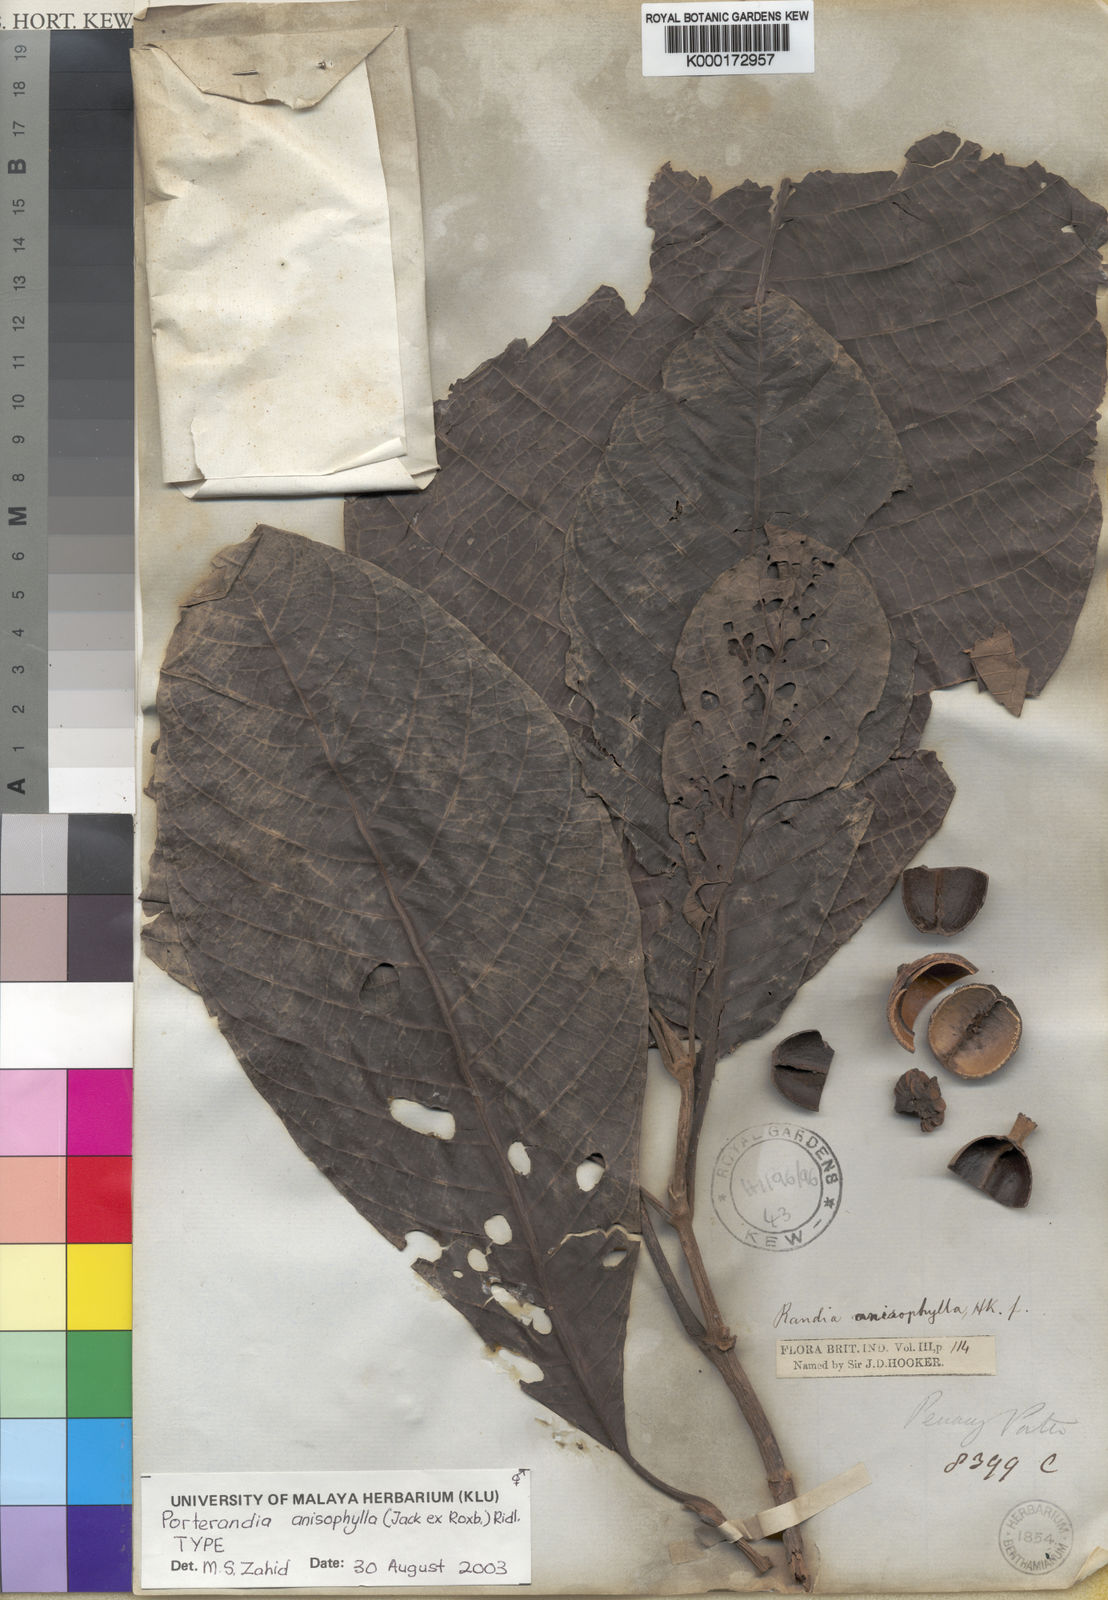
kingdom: Plantae
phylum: Tracheophyta
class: Magnoliopsida
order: Gentianales
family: Rubiaceae
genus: Porterandia
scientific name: Porterandia anisophylla
